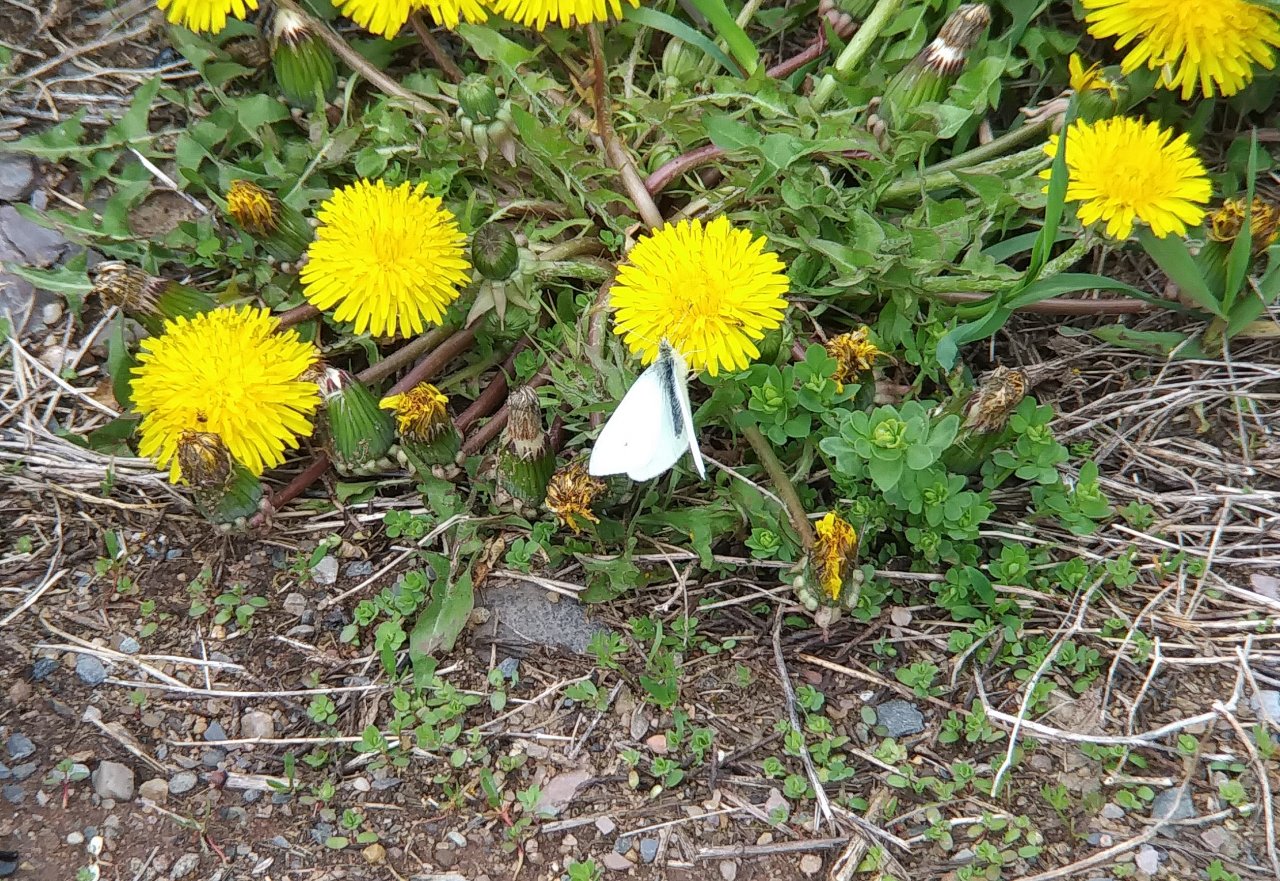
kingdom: Animalia
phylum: Arthropoda
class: Insecta
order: Lepidoptera
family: Pieridae
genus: Pieris
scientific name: Pieris rapae
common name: Cabbage White
